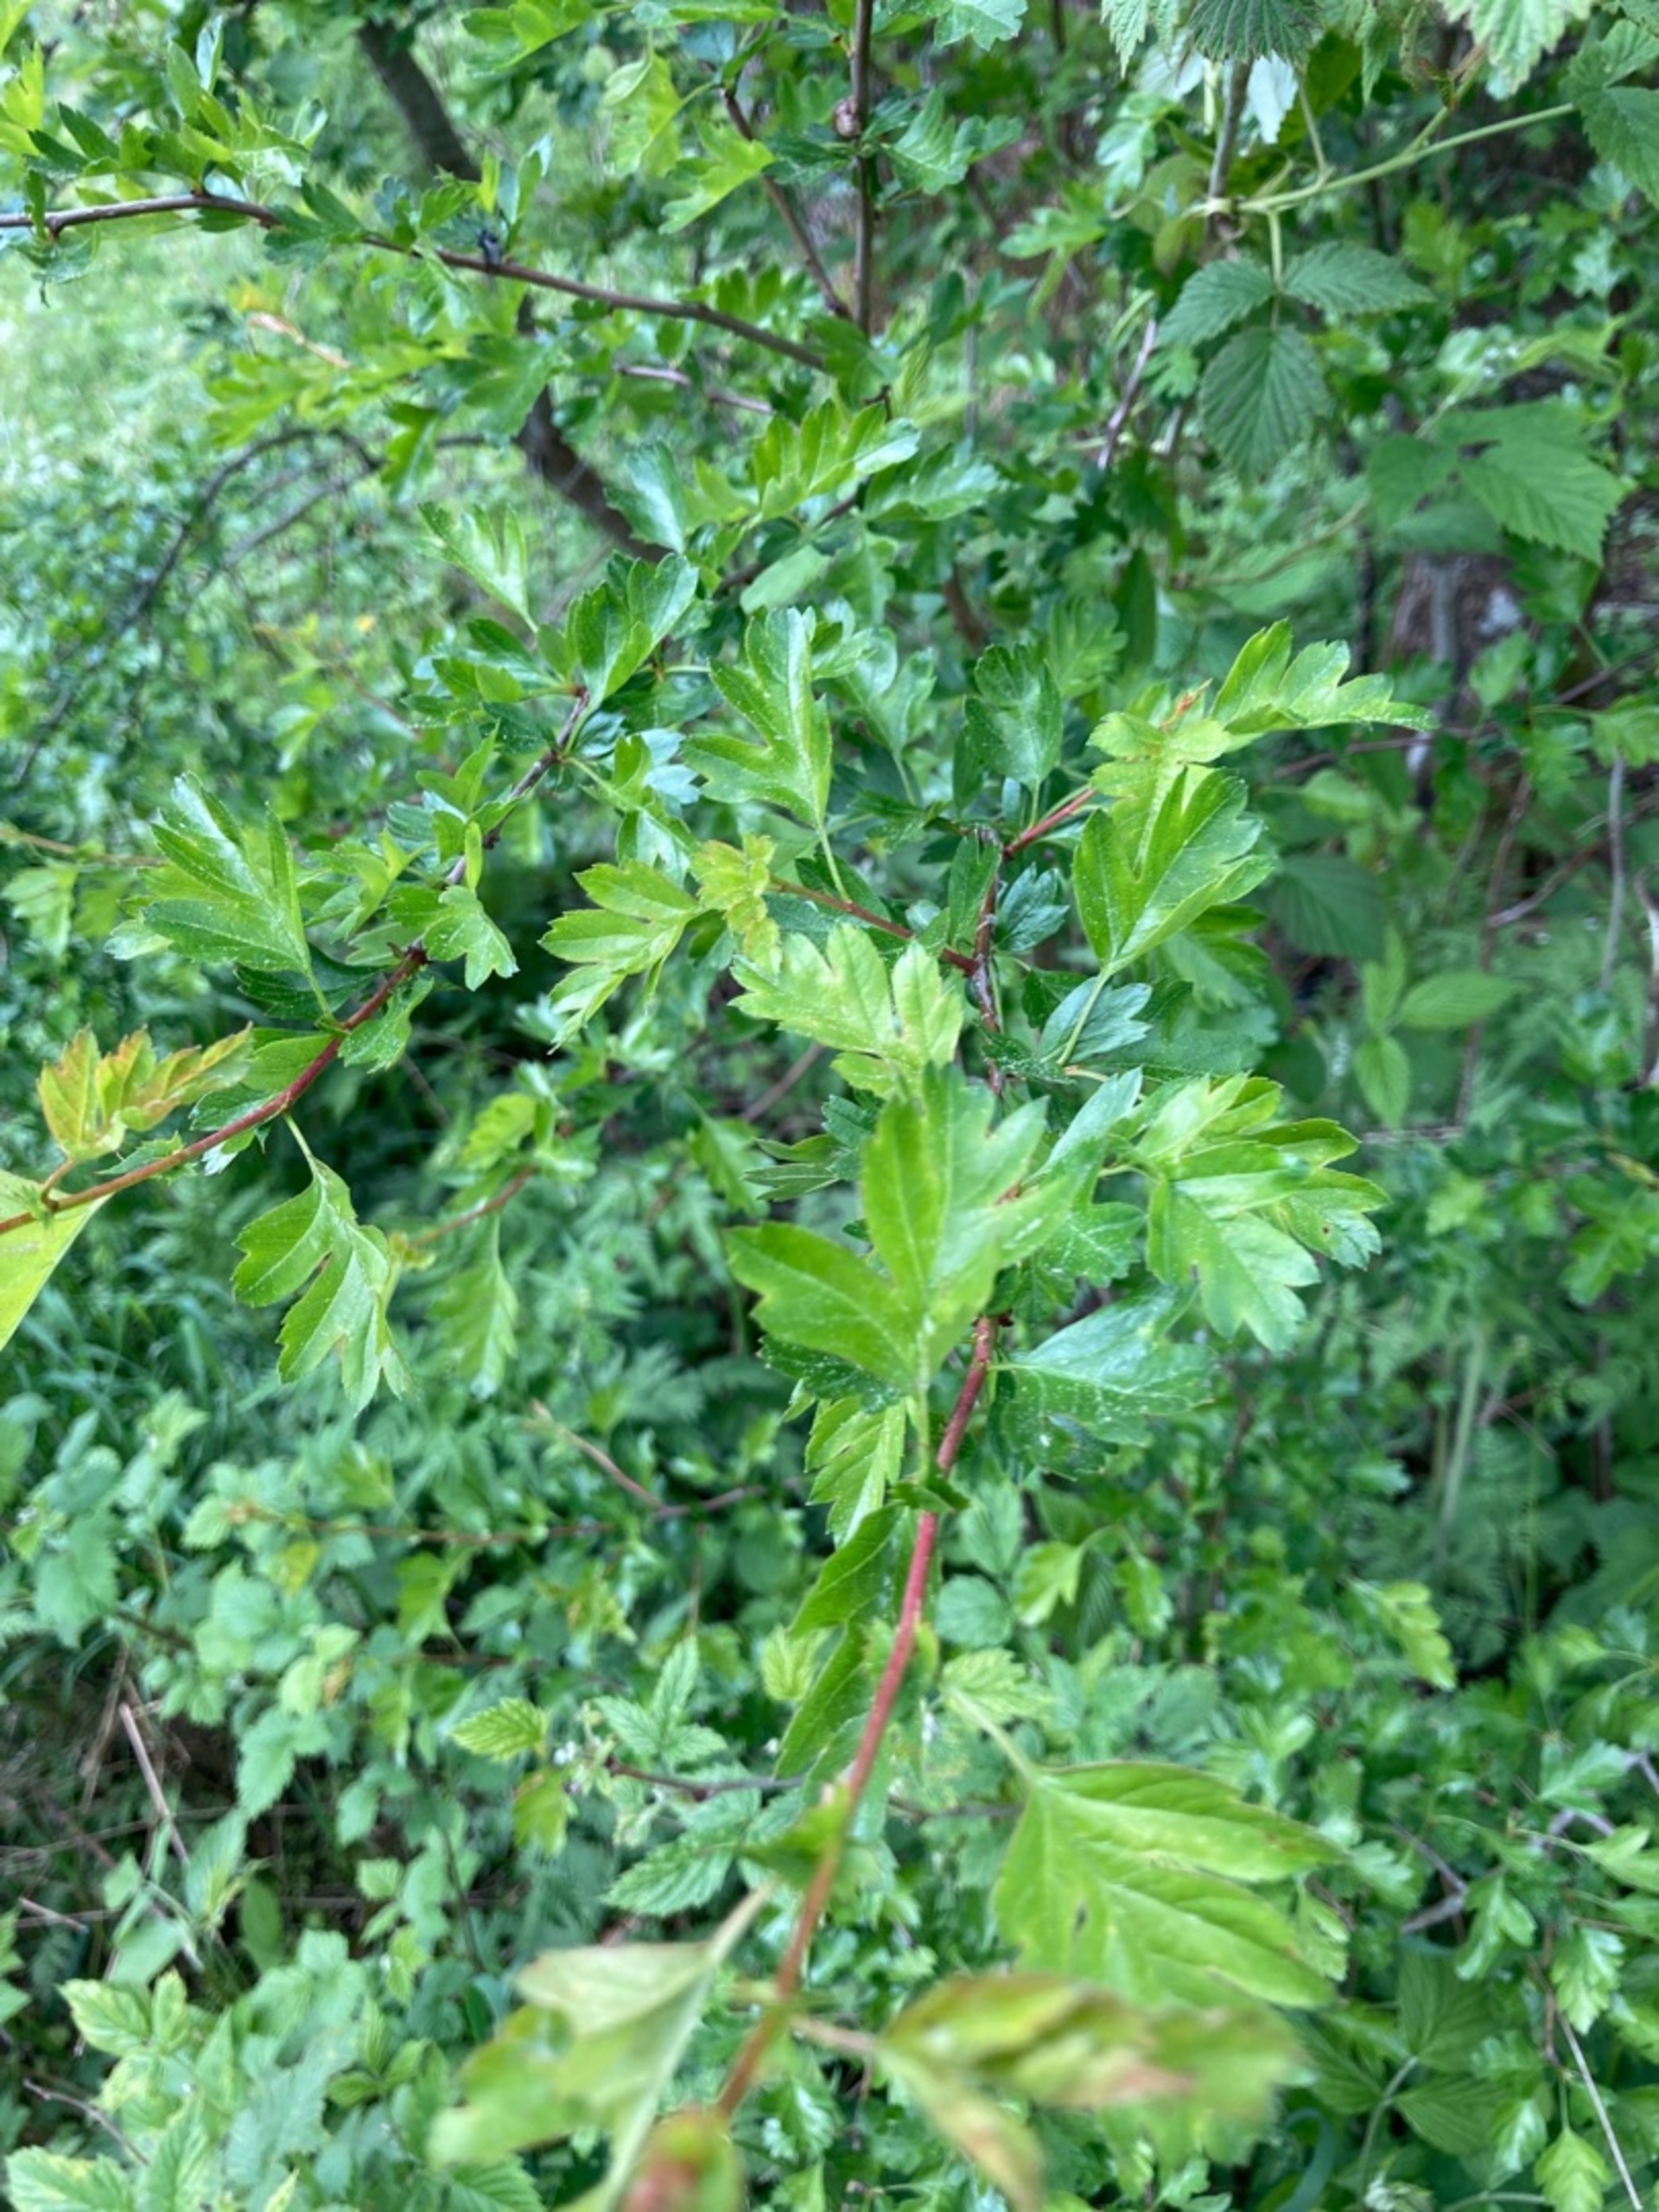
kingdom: Plantae
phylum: Tracheophyta
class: Magnoliopsida
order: Rosales
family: Rosaceae
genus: Crataegus
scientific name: Crataegus monogyna
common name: Engriflet hvidtjørn
